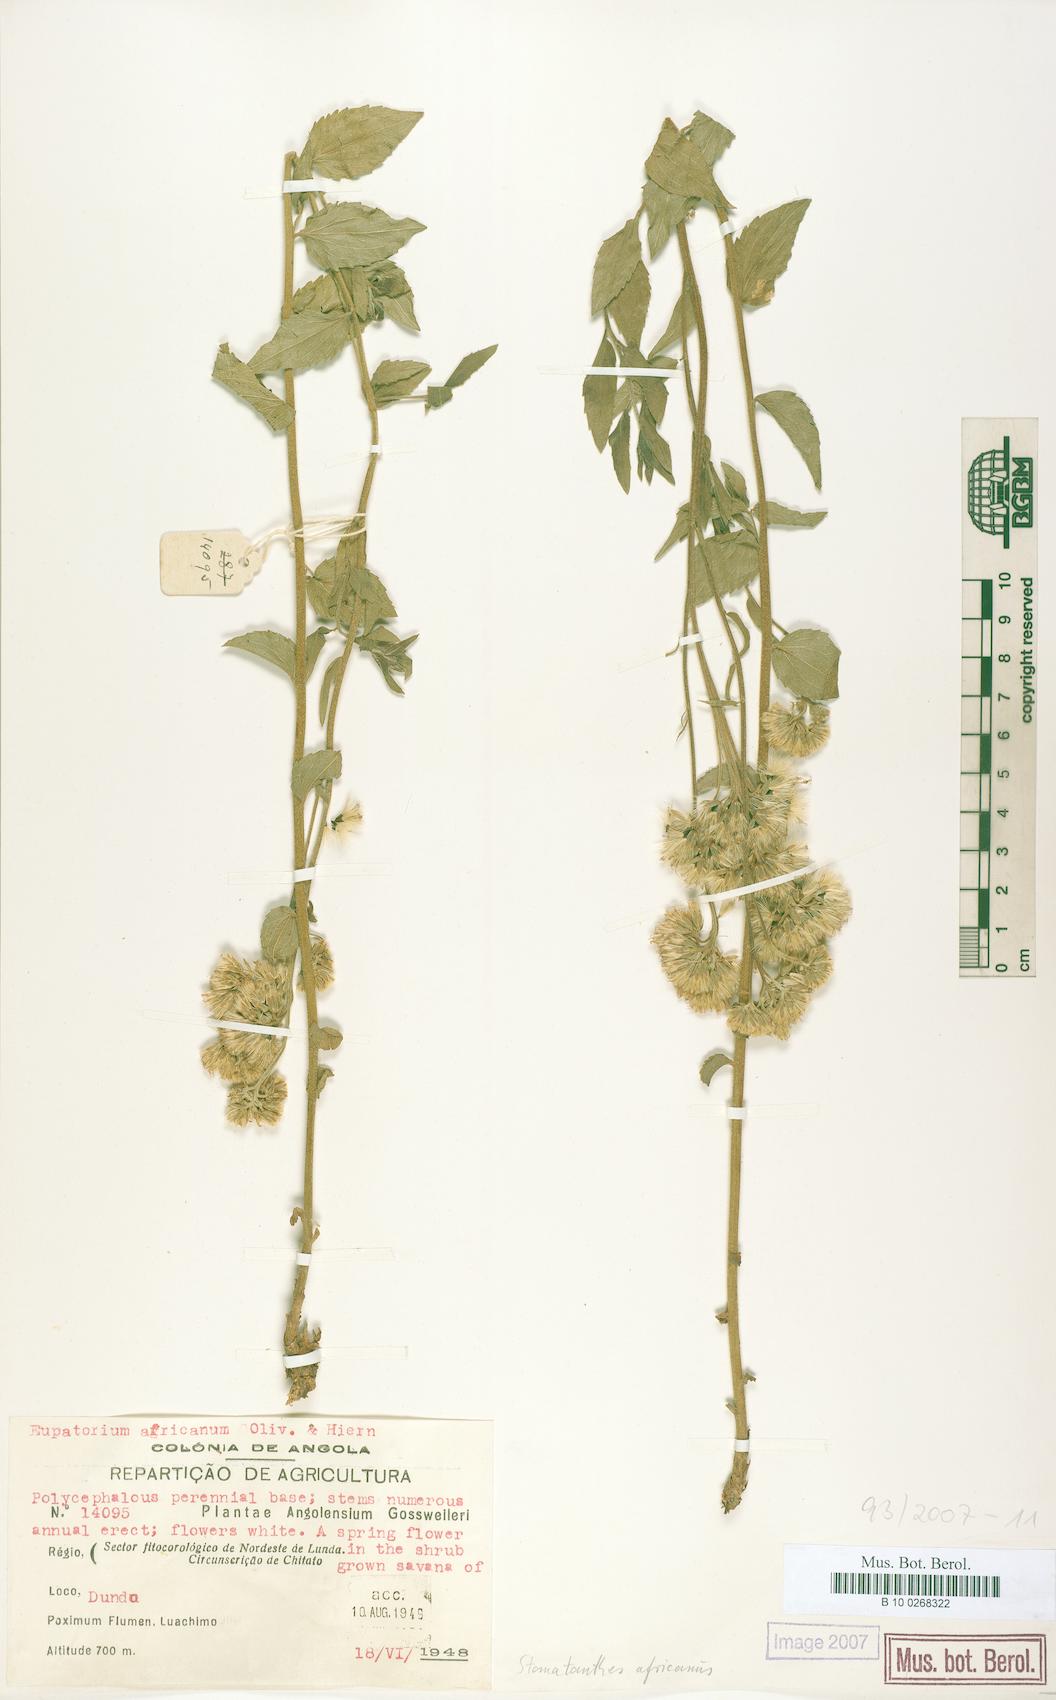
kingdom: Plantae
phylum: Tracheophyta
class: Magnoliopsida
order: Asterales
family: Asteraceae
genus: Stomatanthes
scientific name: Stomatanthes africanus
